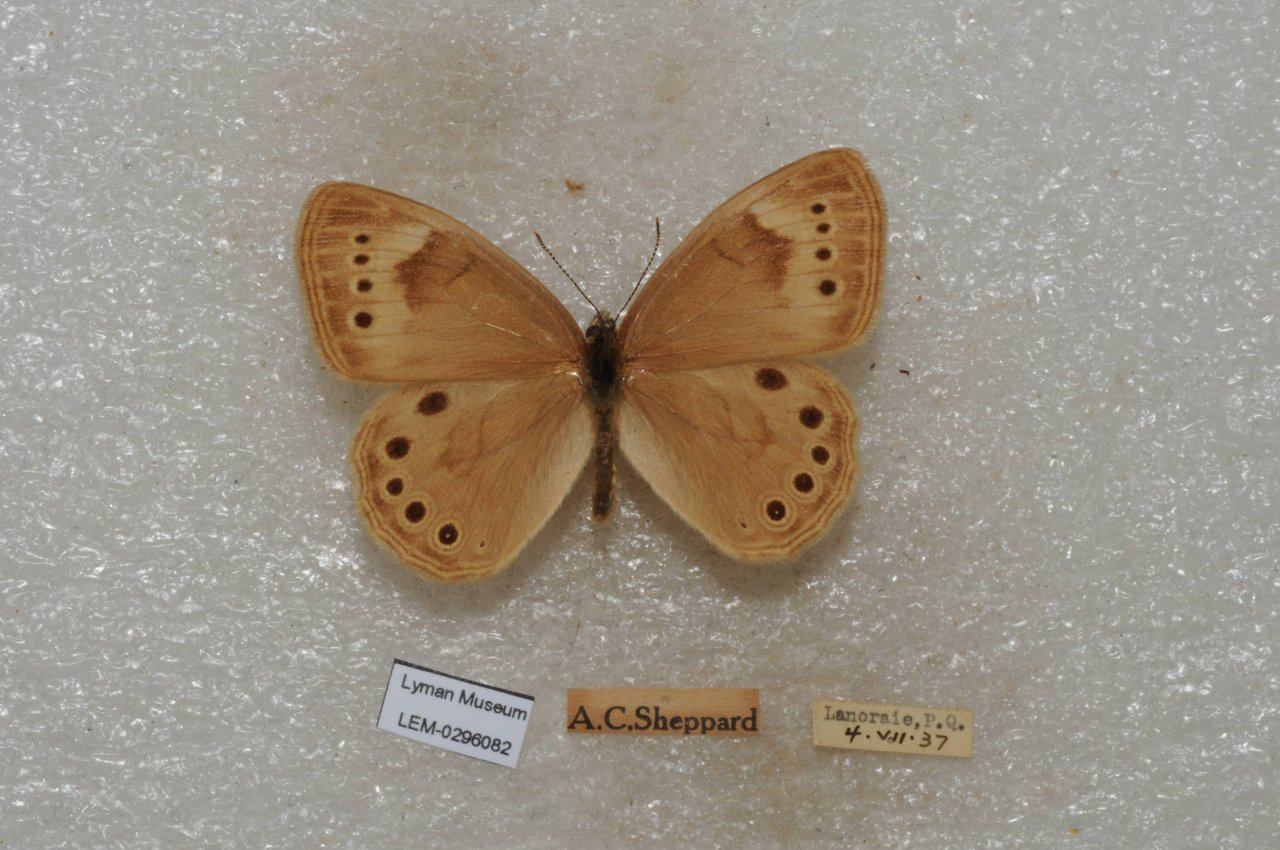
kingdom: Animalia
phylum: Arthropoda
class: Insecta
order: Lepidoptera
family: Nymphalidae
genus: Lethe
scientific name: Lethe eurydice
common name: Eyed Brown
